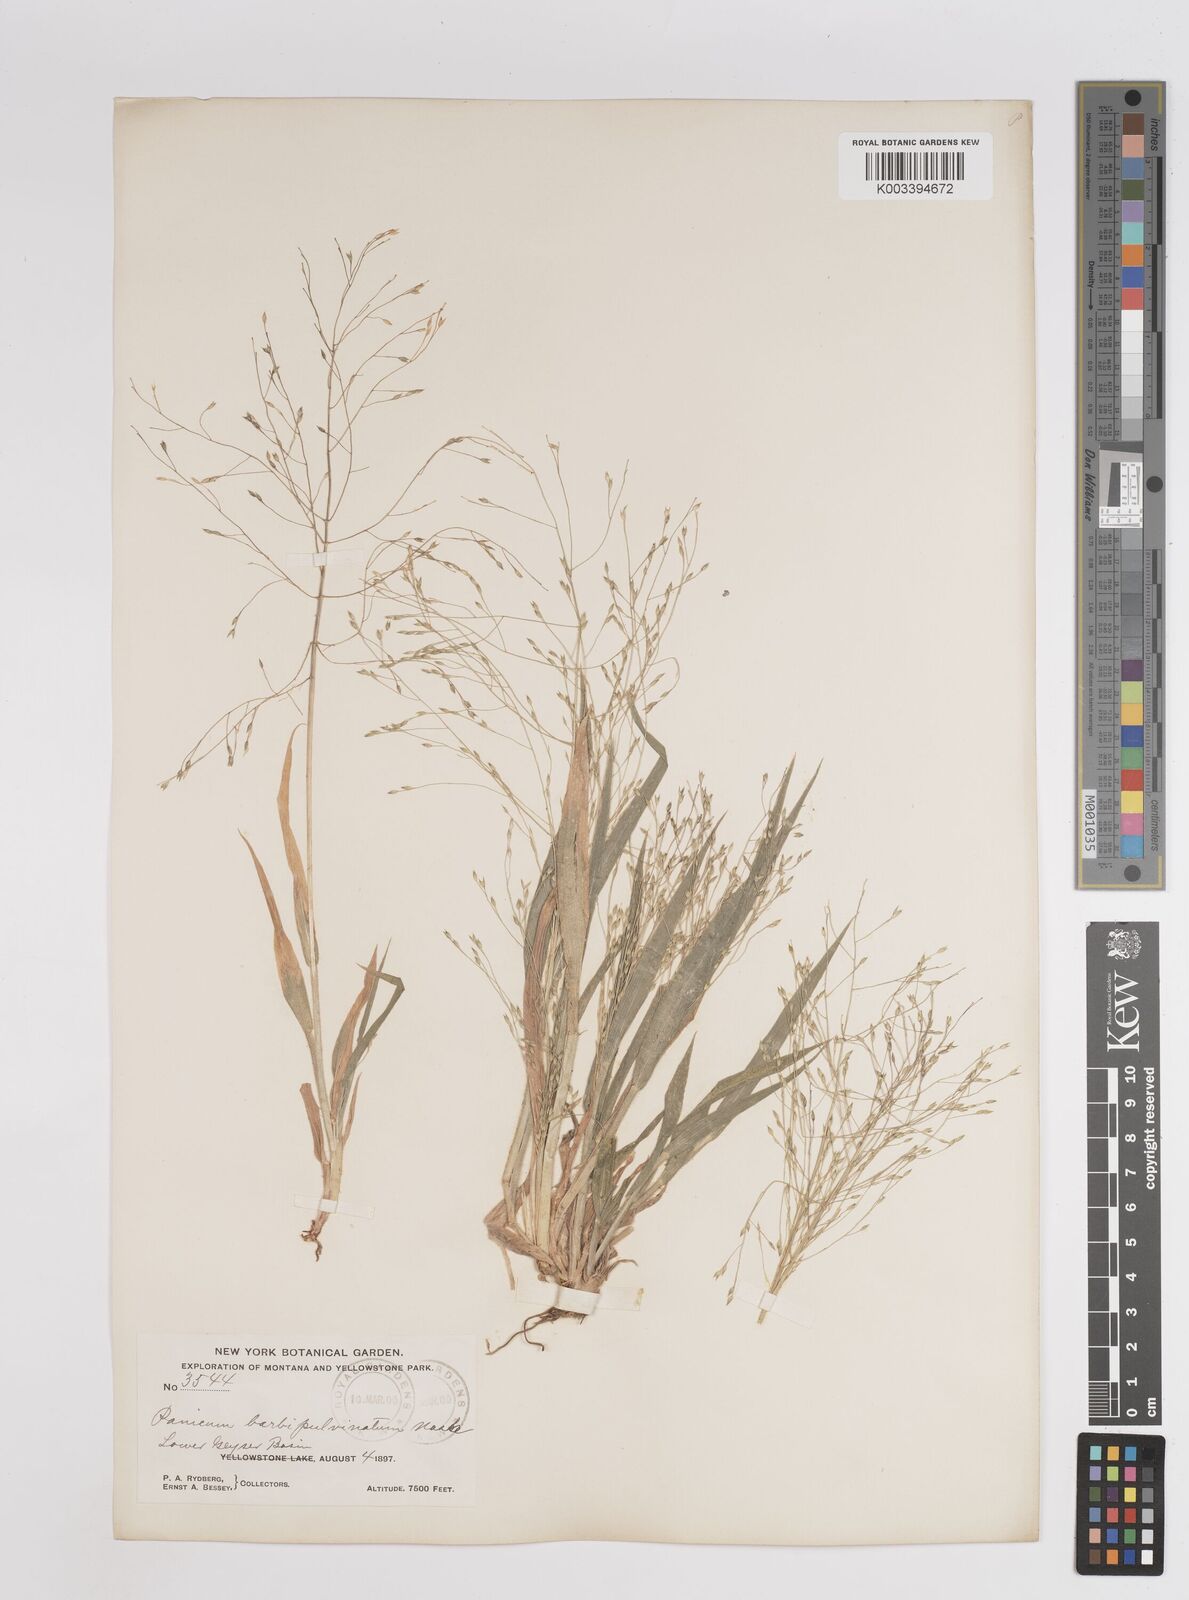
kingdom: Plantae
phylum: Tracheophyta
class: Liliopsida
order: Poales
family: Poaceae
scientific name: Poaceae
